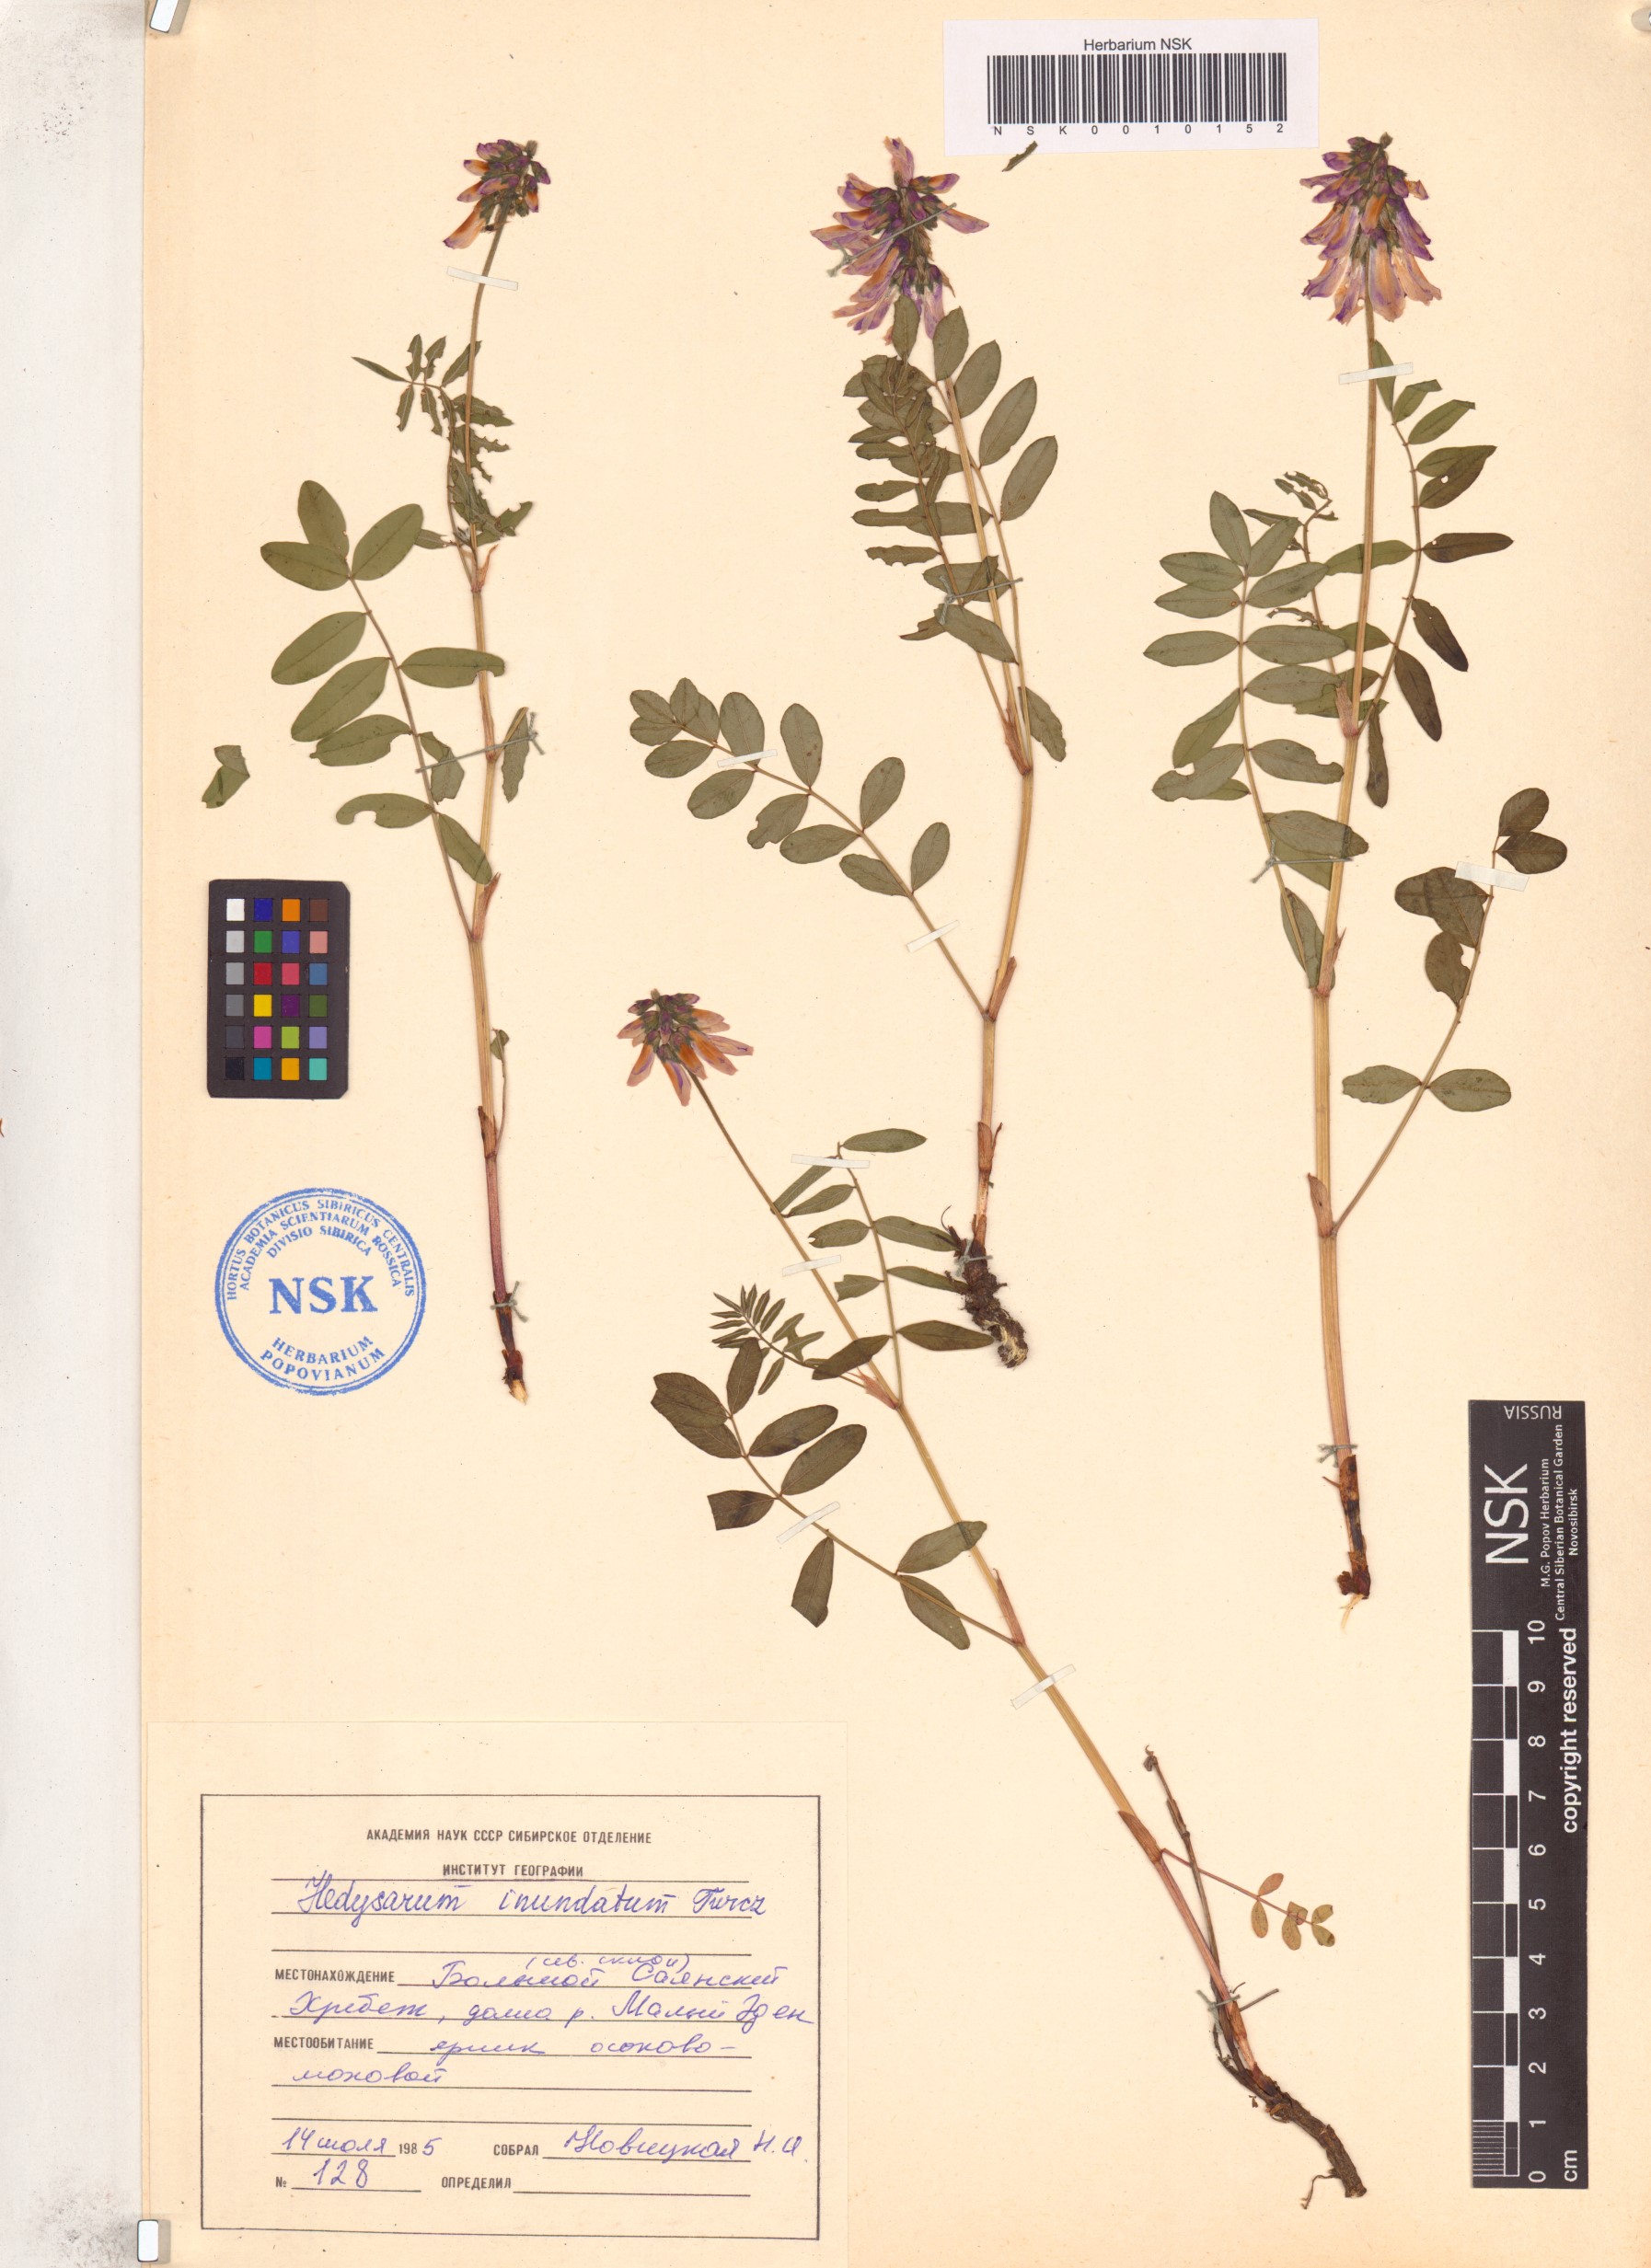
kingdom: Plantae
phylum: Tracheophyta
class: Magnoliopsida
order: Fabales
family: Fabaceae
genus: Hedysarum
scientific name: Hedysarum inundatum
